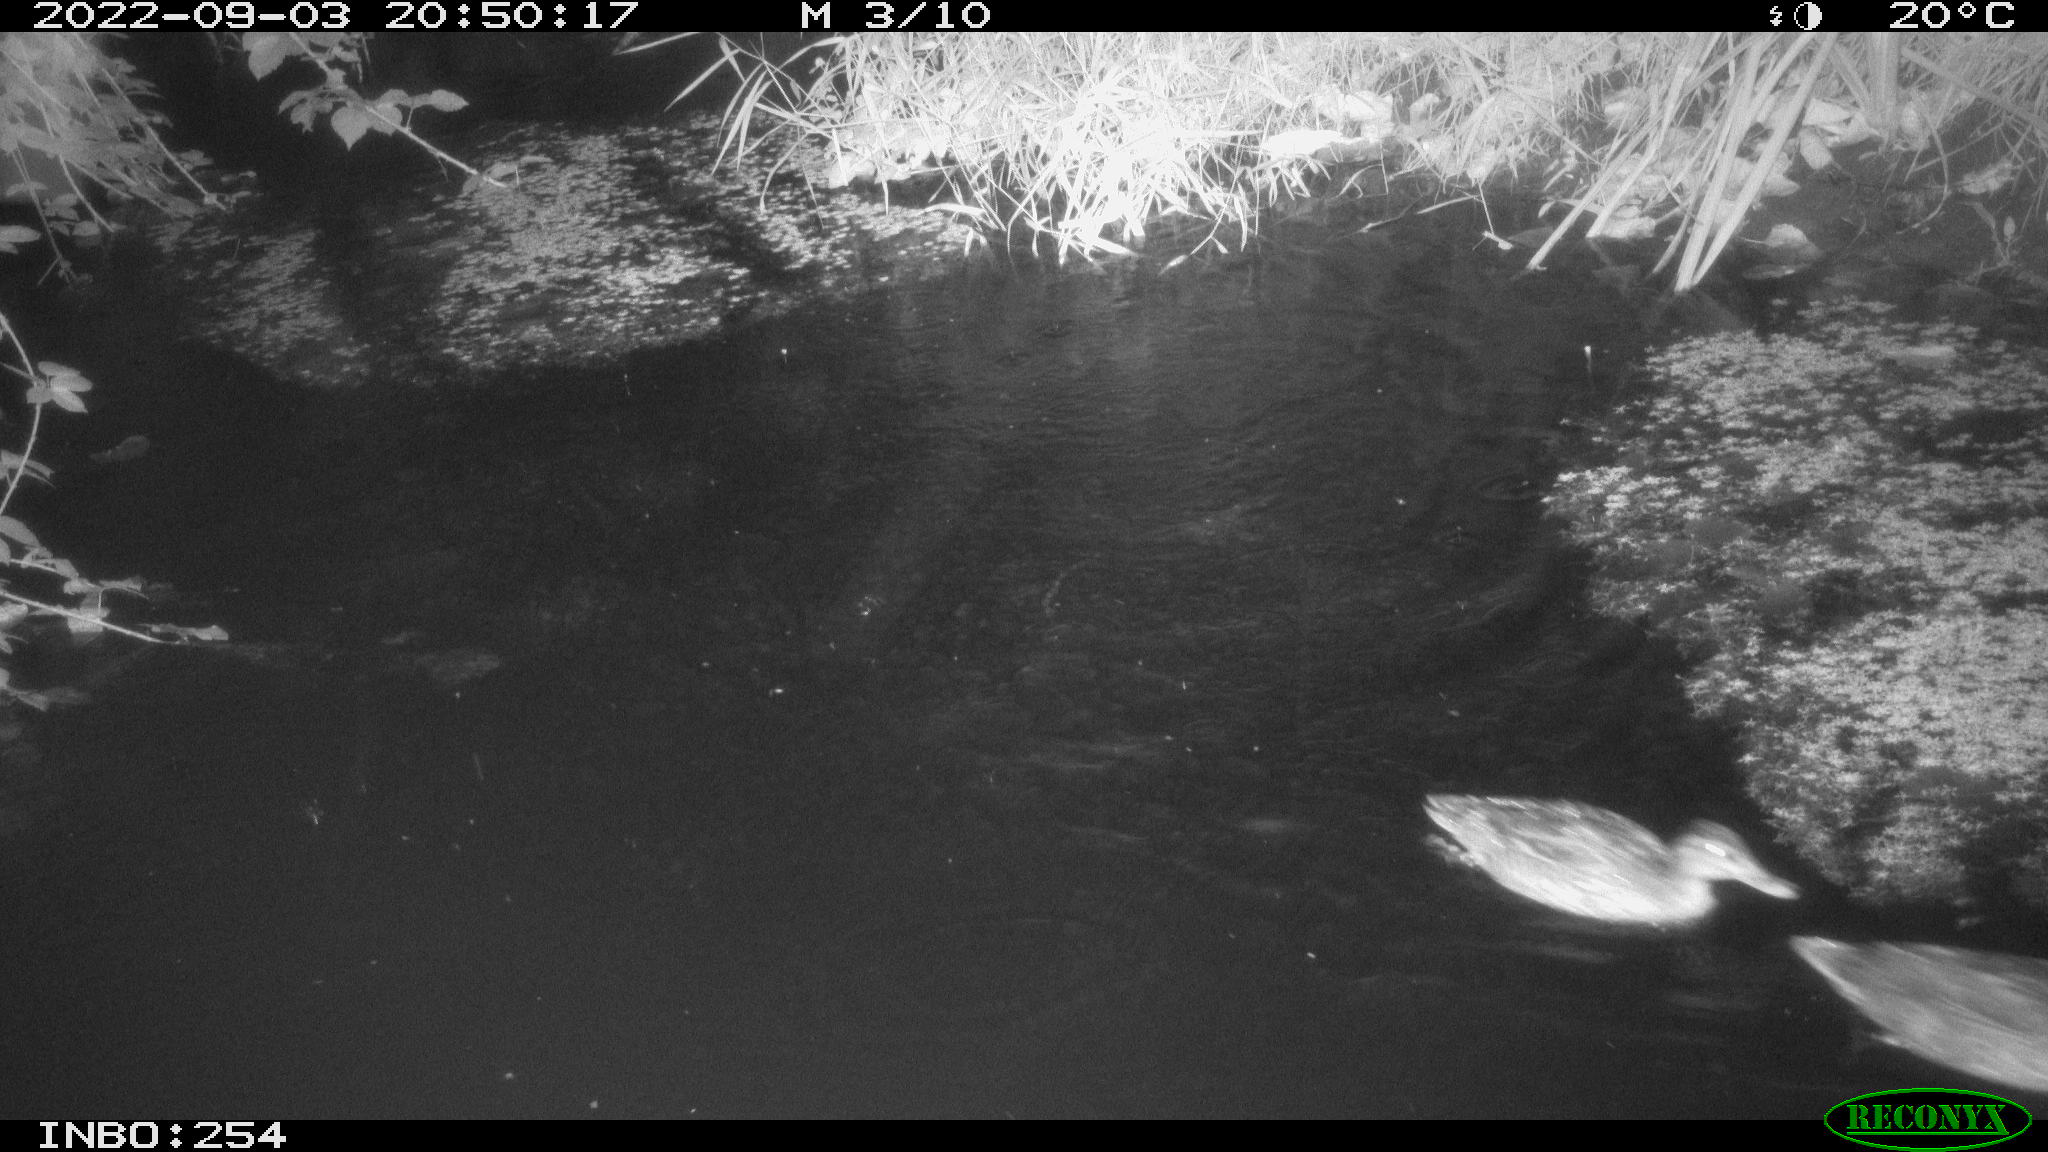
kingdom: Animalia
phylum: Chordata
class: Aves
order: Anseriformes
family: Anatidae
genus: Anas
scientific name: Anas platyrhynchos
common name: Mallard
